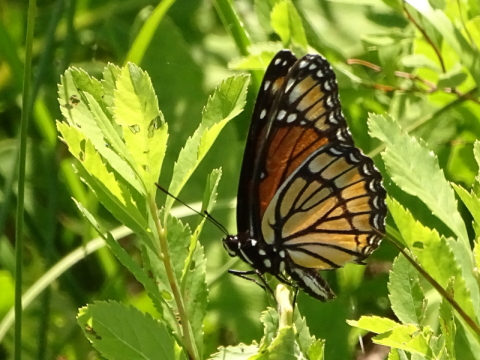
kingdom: Animalia
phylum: Arthropoda
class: Insecta
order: Lepidoptera
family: Nymphalidae
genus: Limenitis
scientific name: Limenitis archippus
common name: Viceroy
